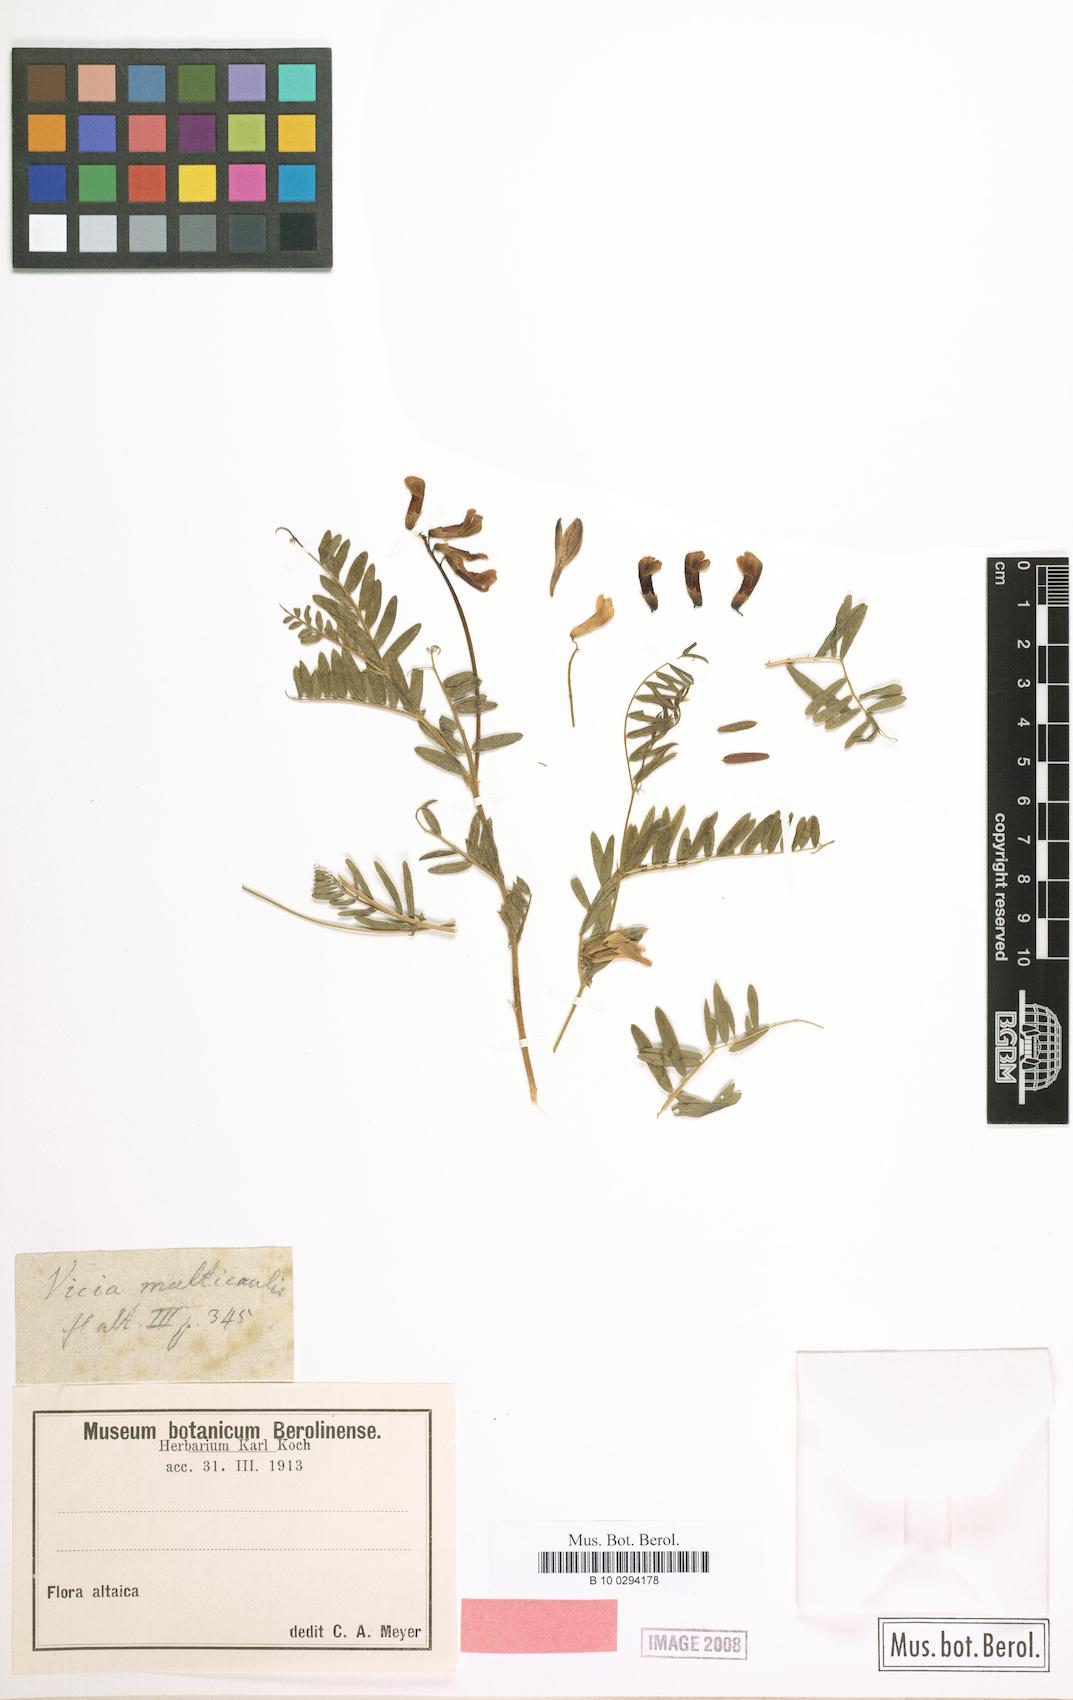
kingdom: Plantae
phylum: Tracheophyta
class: Magnoliopsida
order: Fabales
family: Fabaceae
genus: Vicia
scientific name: Vicia multicaulis
